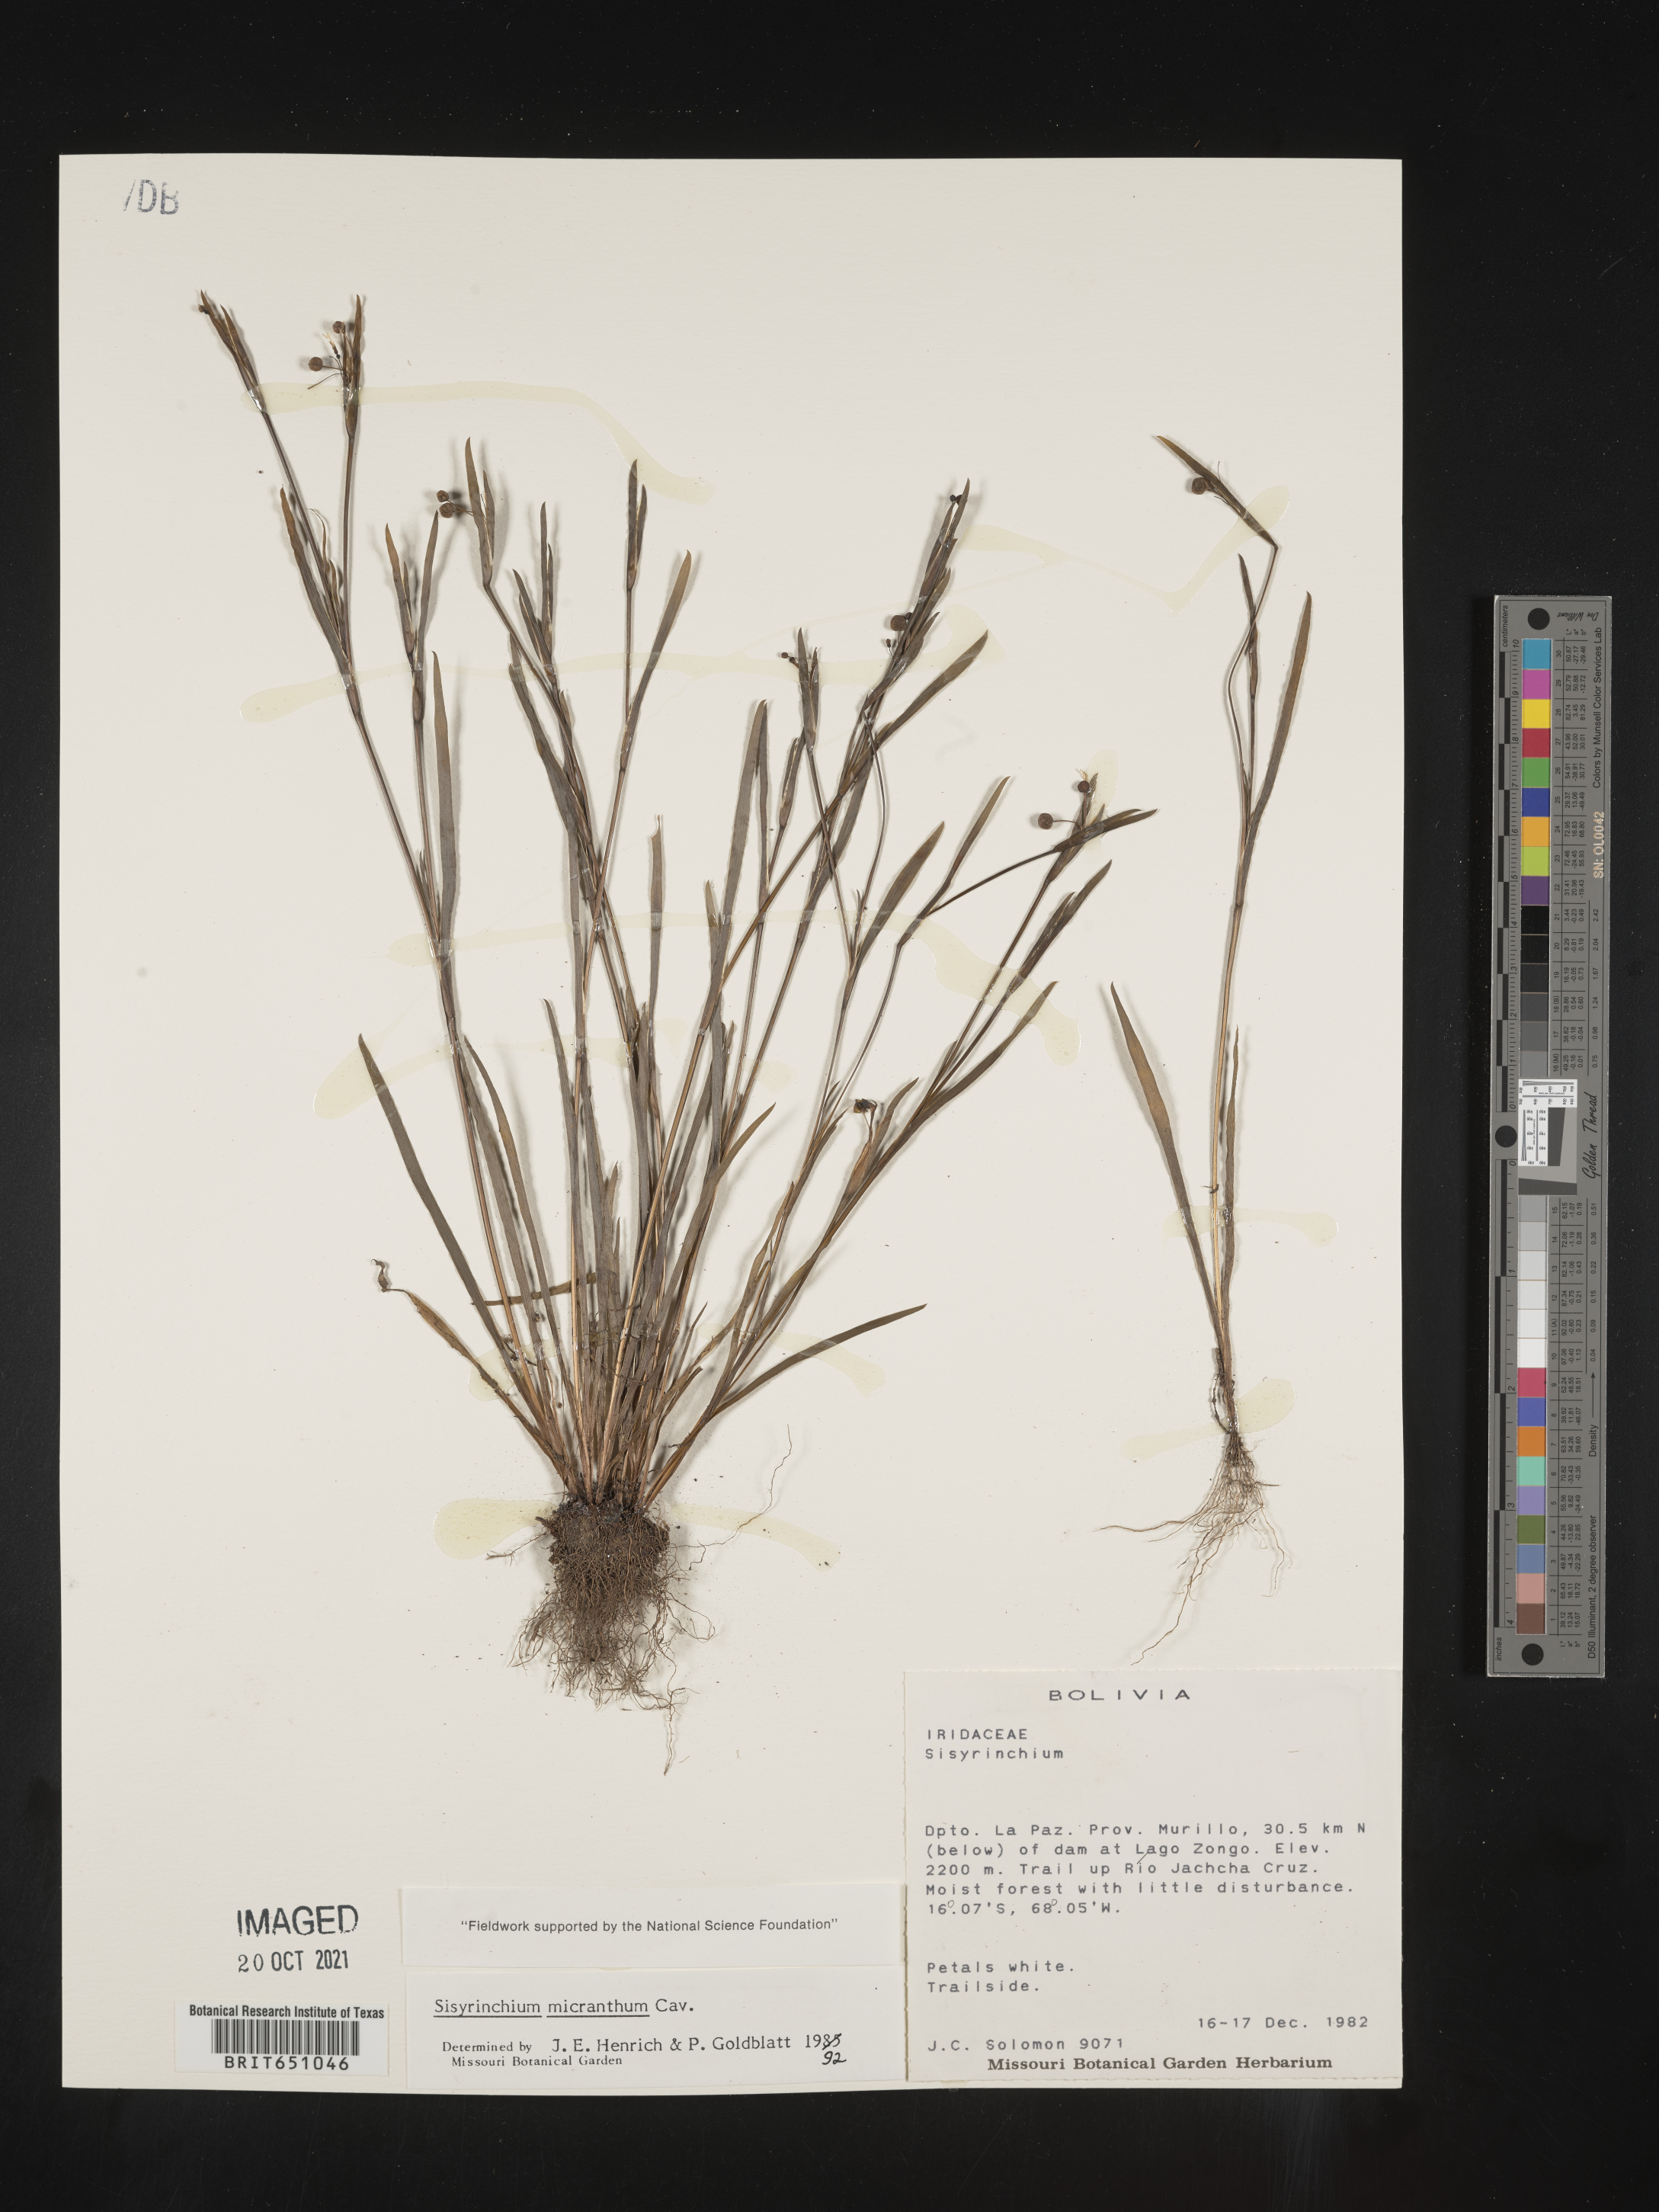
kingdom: Plantae
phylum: Tracheophyta
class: Liliopsida
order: Asparagales
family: Iridaceae
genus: Sisyrinchium
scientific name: Sisyrinchium
